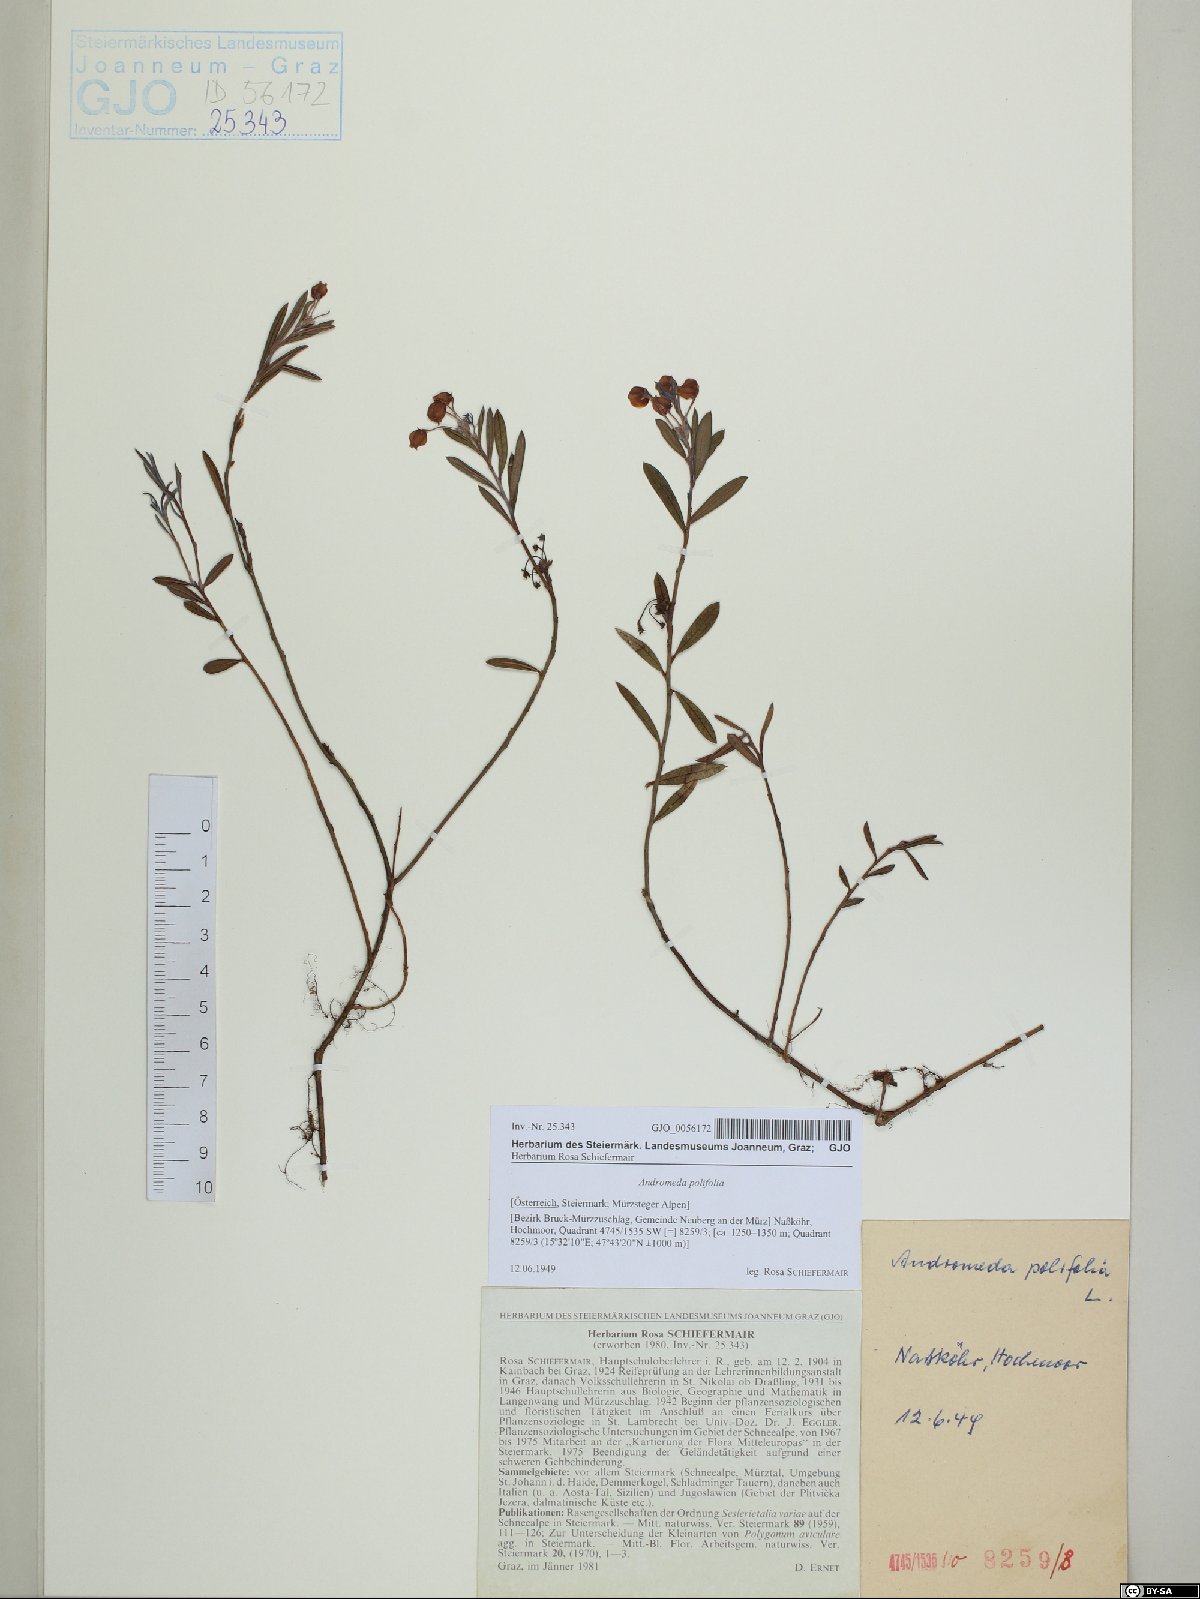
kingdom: Plantae
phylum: Tracheophyta
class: Magnoliopsida
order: Ericales
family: Ericaceae
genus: Andromeda
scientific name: Andromeda polifolia
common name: Bog-rosemary
